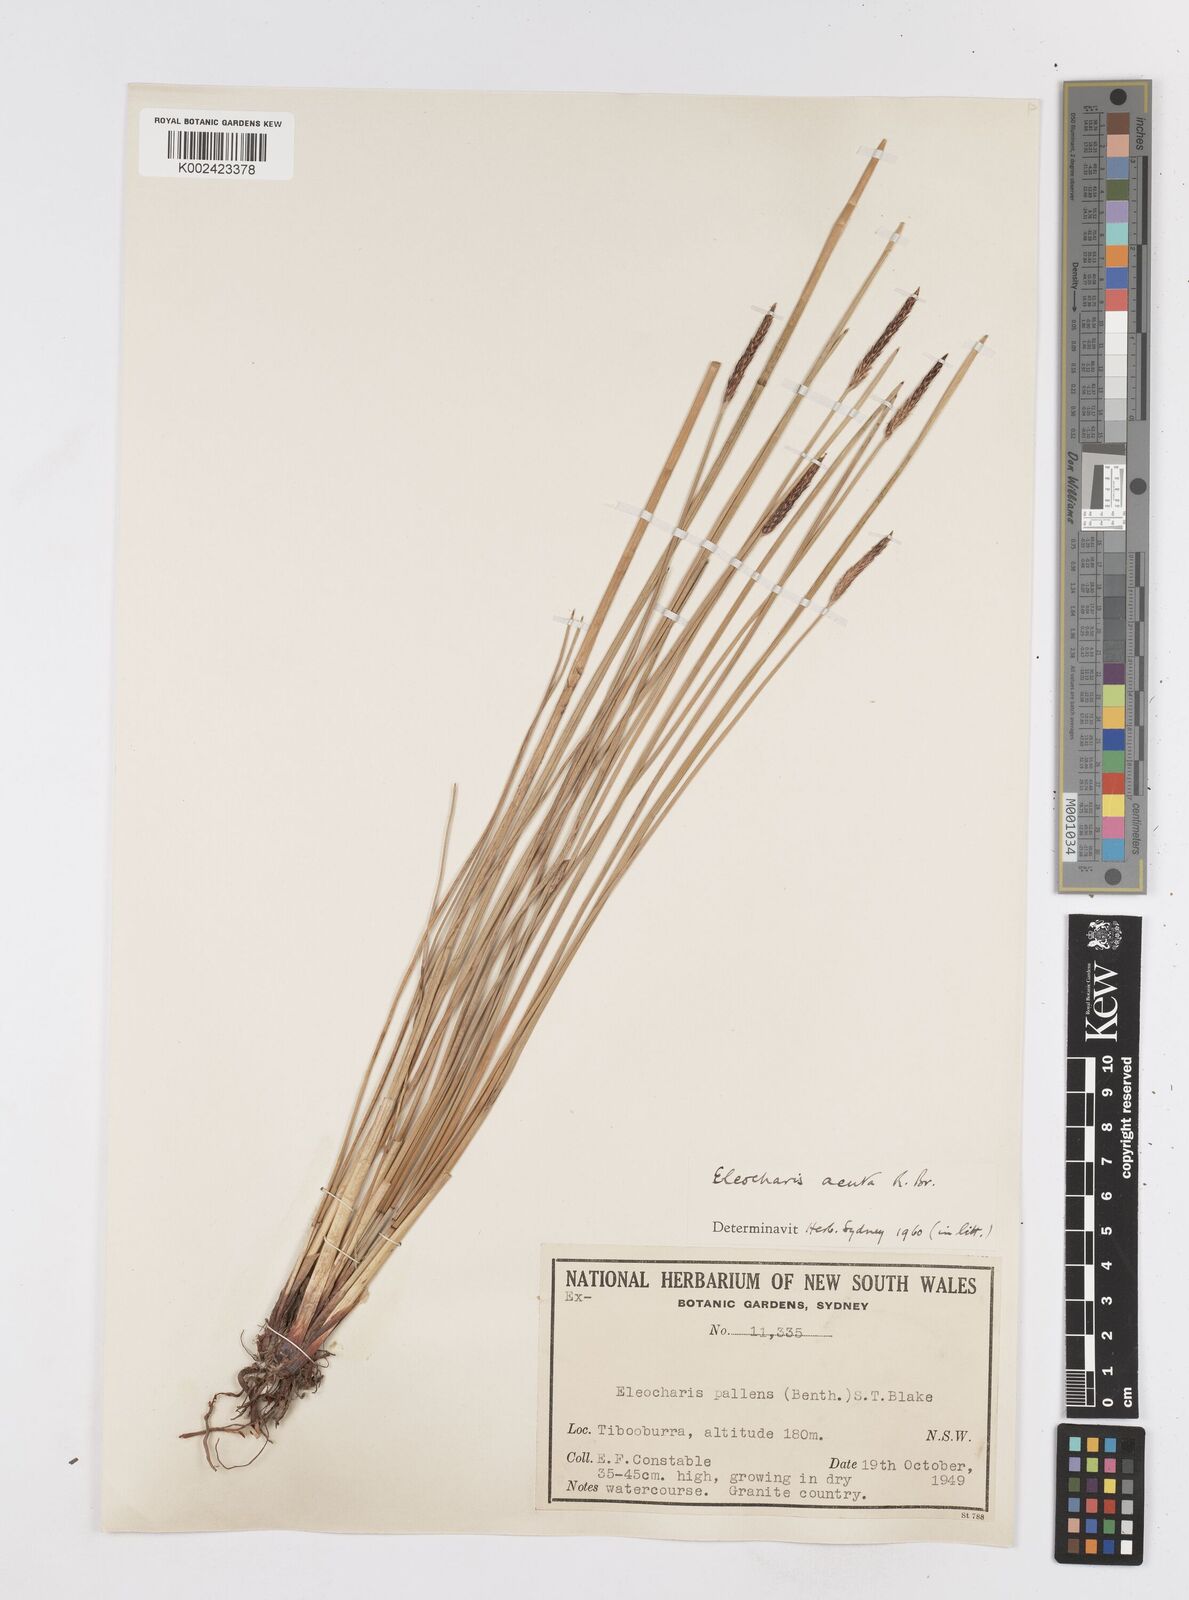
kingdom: Plantae
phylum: Tracheophyta
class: Liliopsida
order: Poales
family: Cyperaceae
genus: Eleocharis
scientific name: Eleocharis acuta
